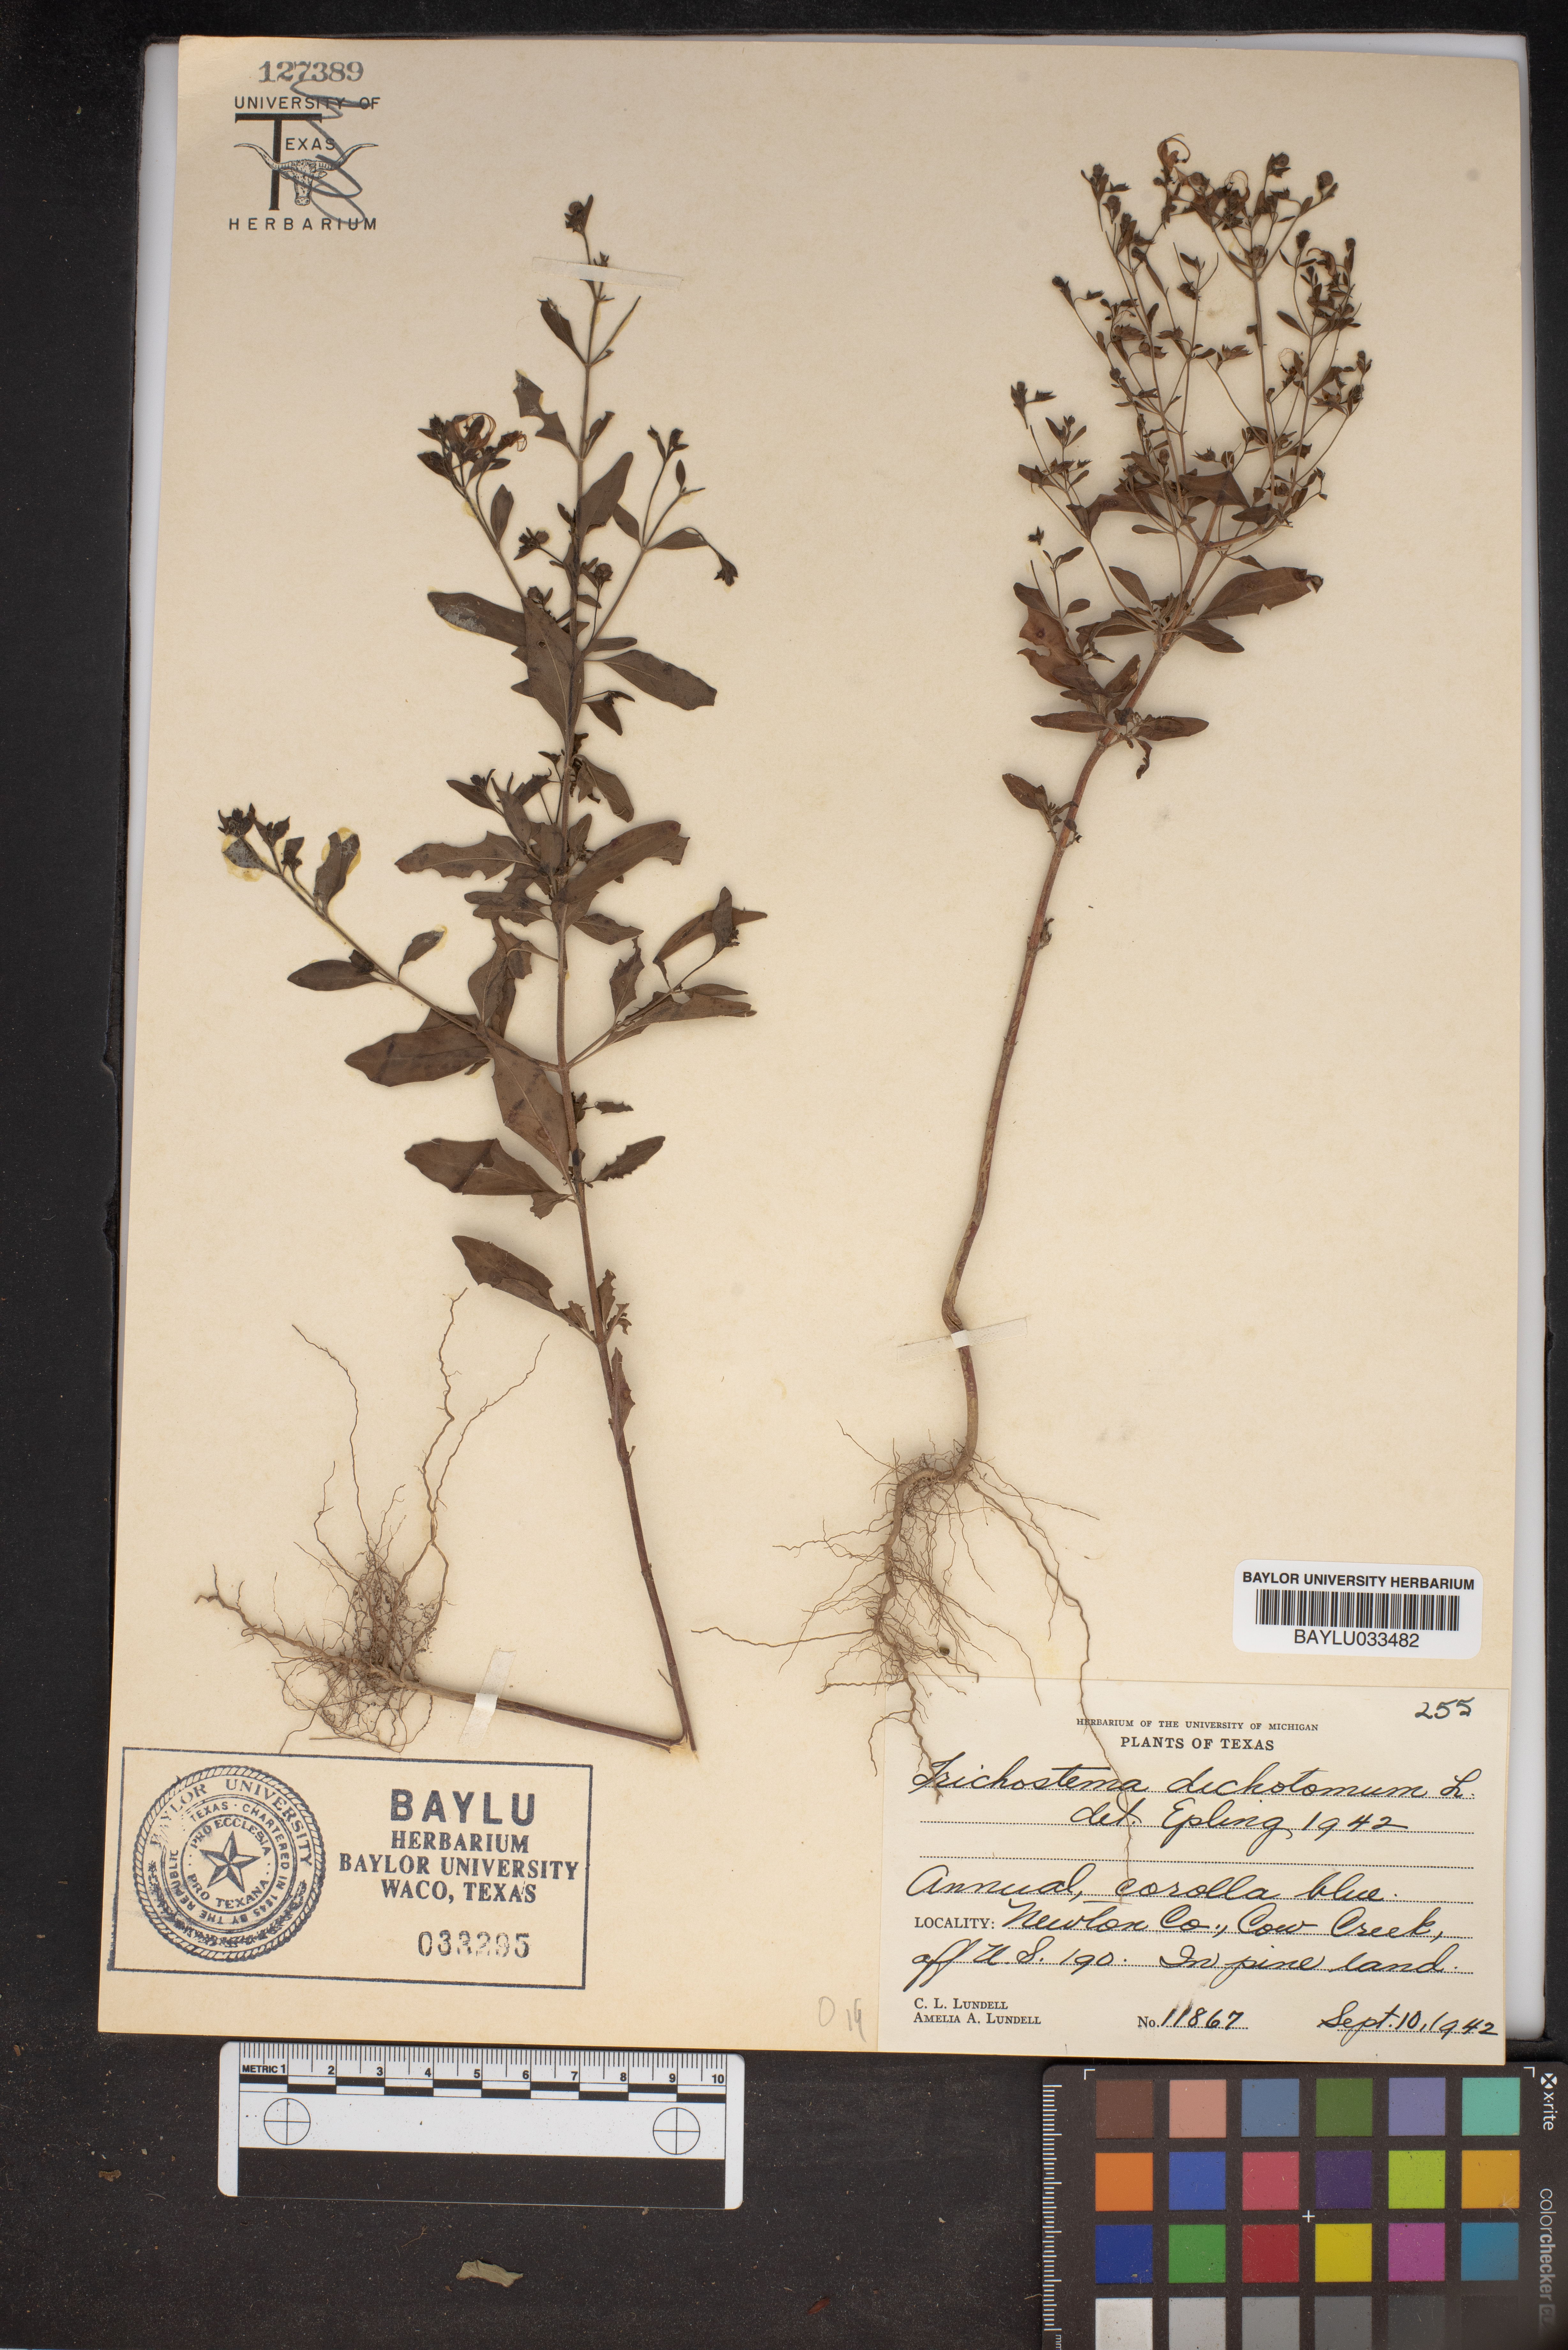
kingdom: Plantae
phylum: Tracheophyta
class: Magnoliopsida
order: Lamiales
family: Lamiaceae
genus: Trichostema
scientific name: Trichostema dichotomum
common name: Bastard pennyroyal
